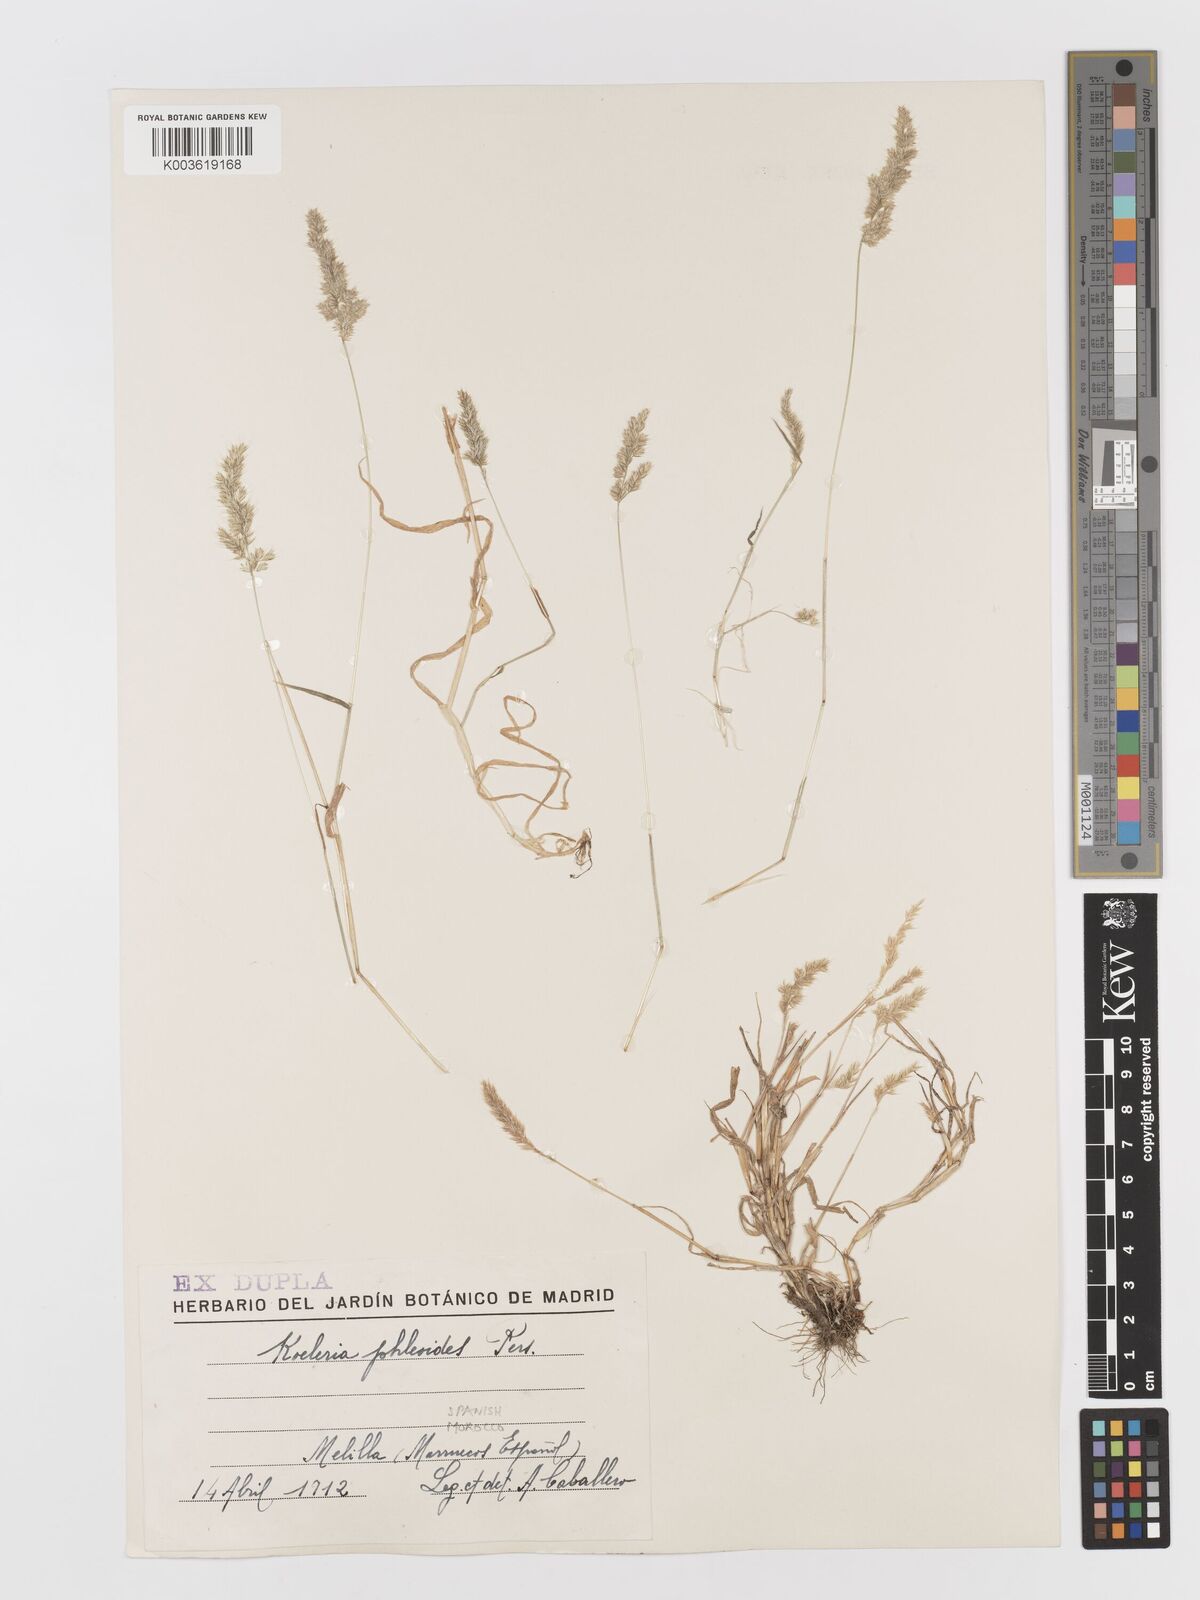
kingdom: Plantae
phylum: Tracheophyta
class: Liliopsida
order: Poales
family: Poaceae
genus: Rostraria
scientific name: Rostraria cristata
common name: Mediterranean hair-grass
